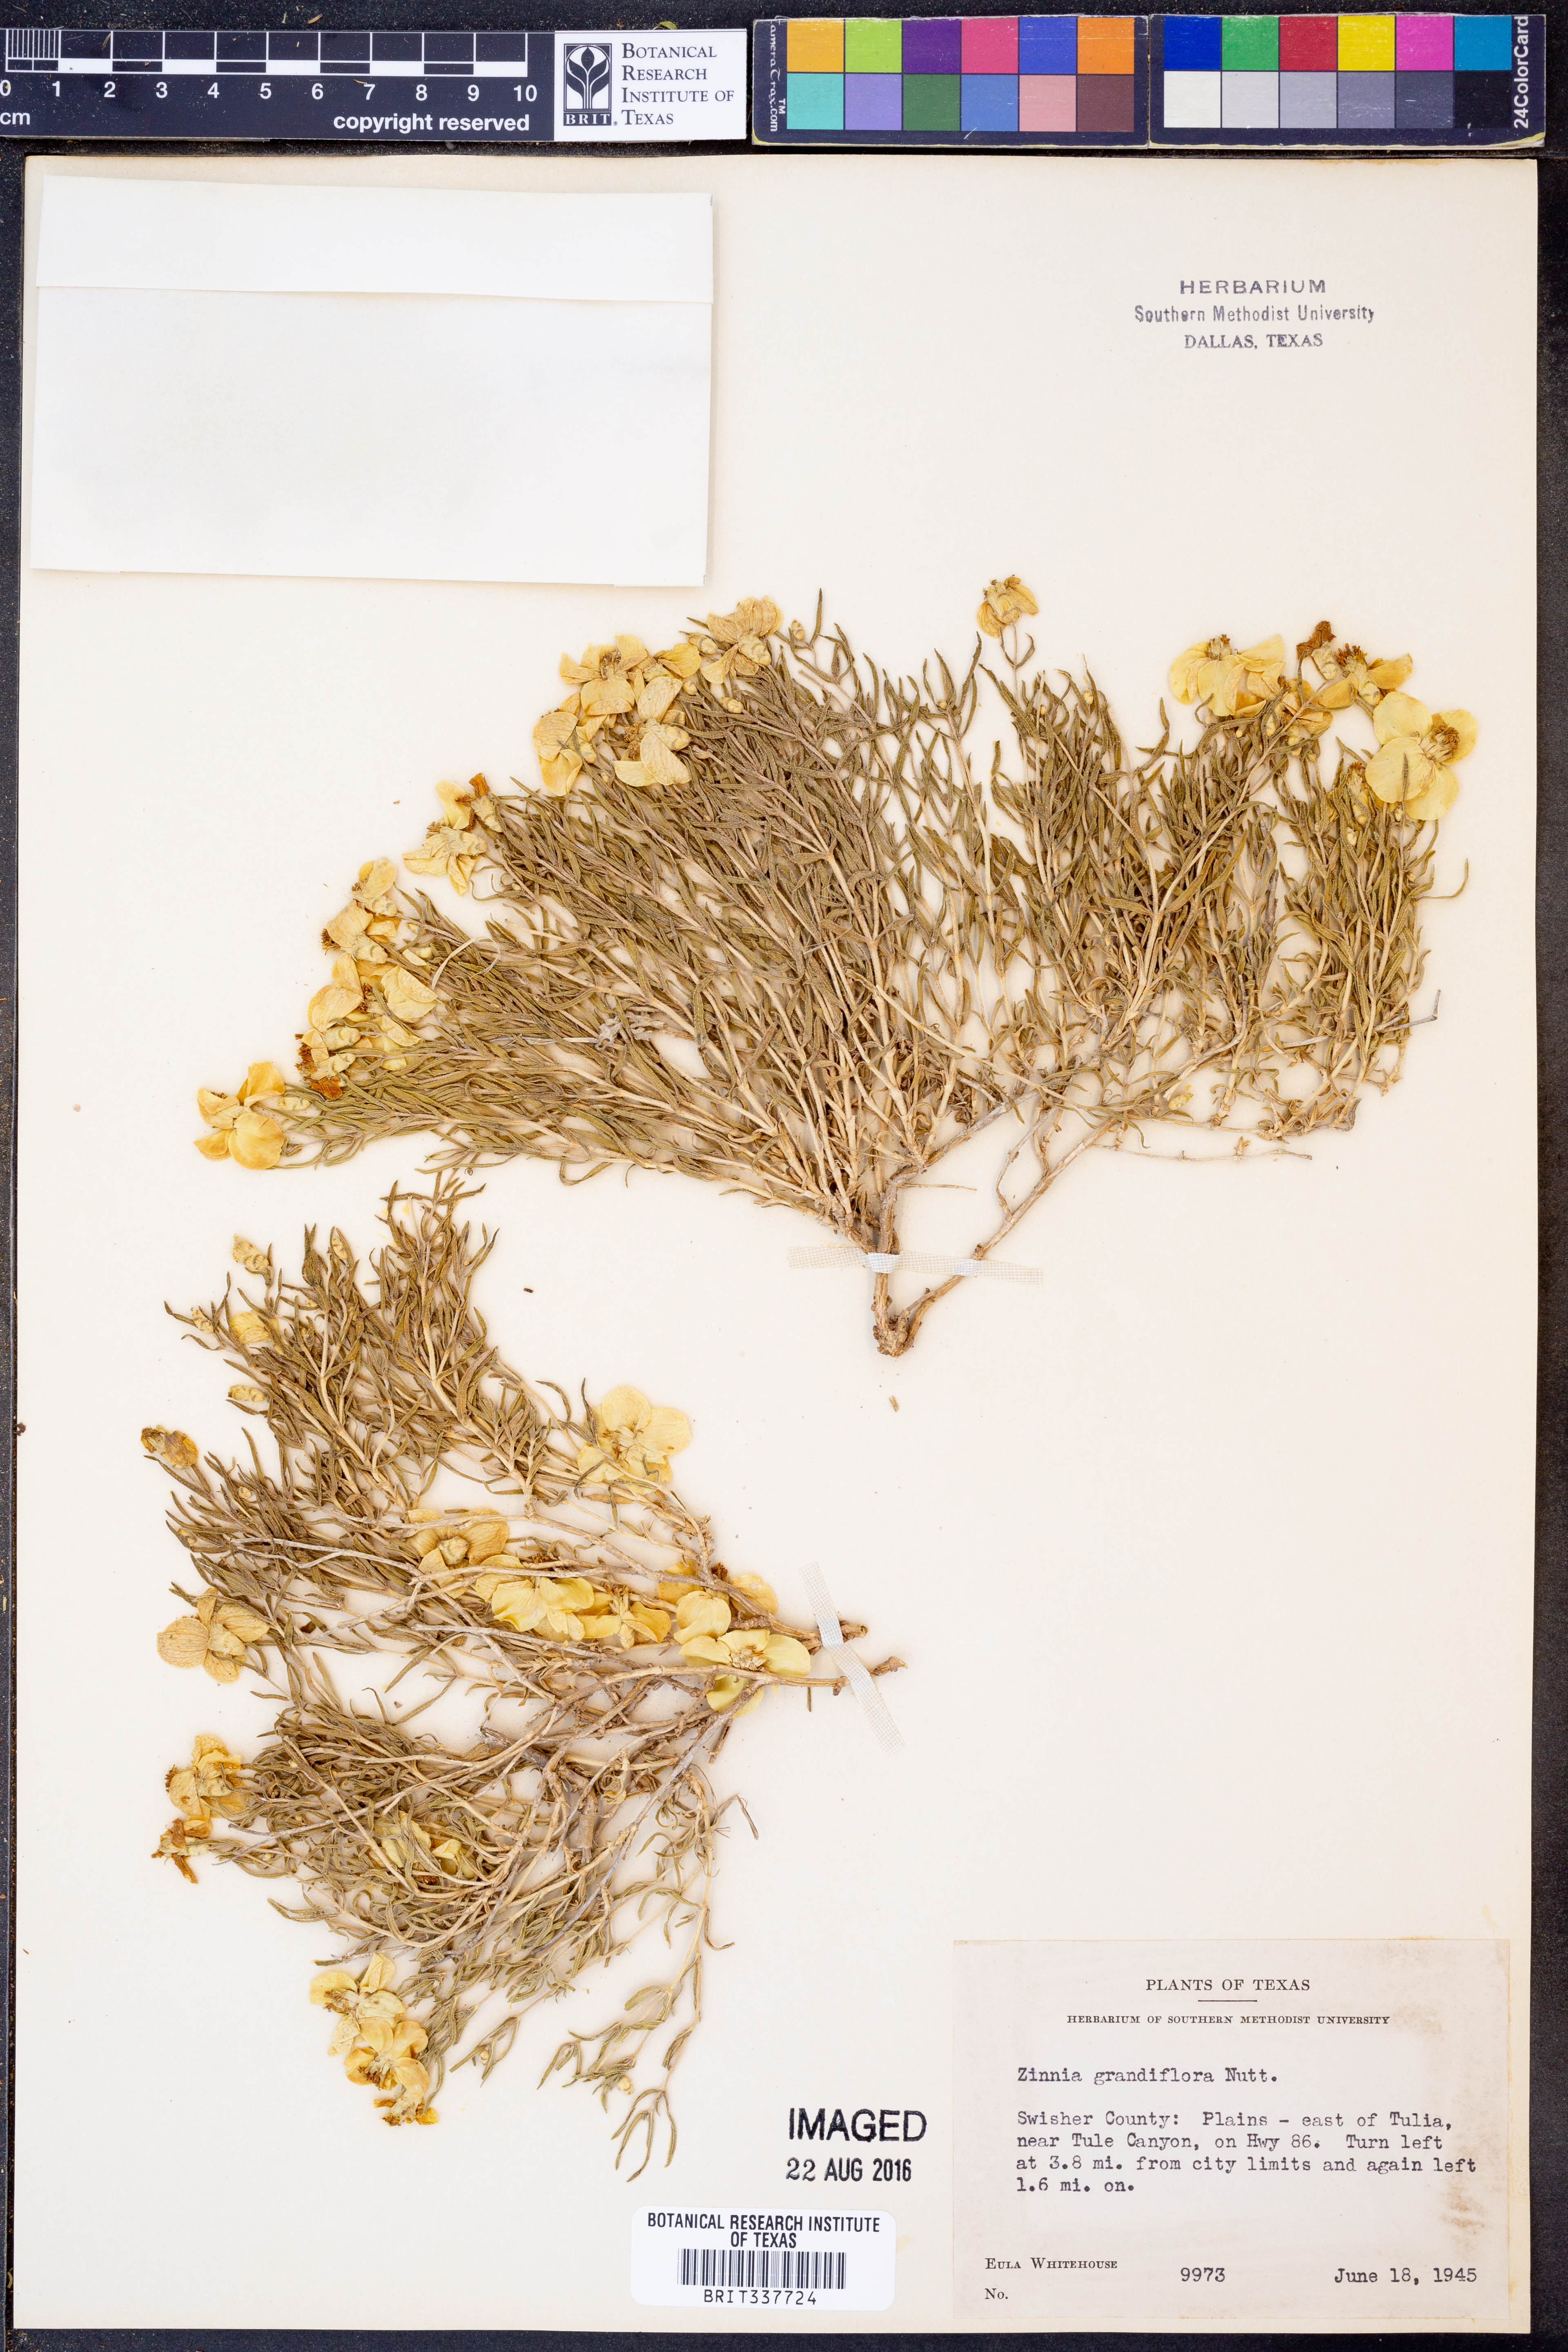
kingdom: Plantae
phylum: Tracheophyta
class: Magnoliopsida
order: Asterales
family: Asteraceae
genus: Zinnia
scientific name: Zinnia grandiflora
